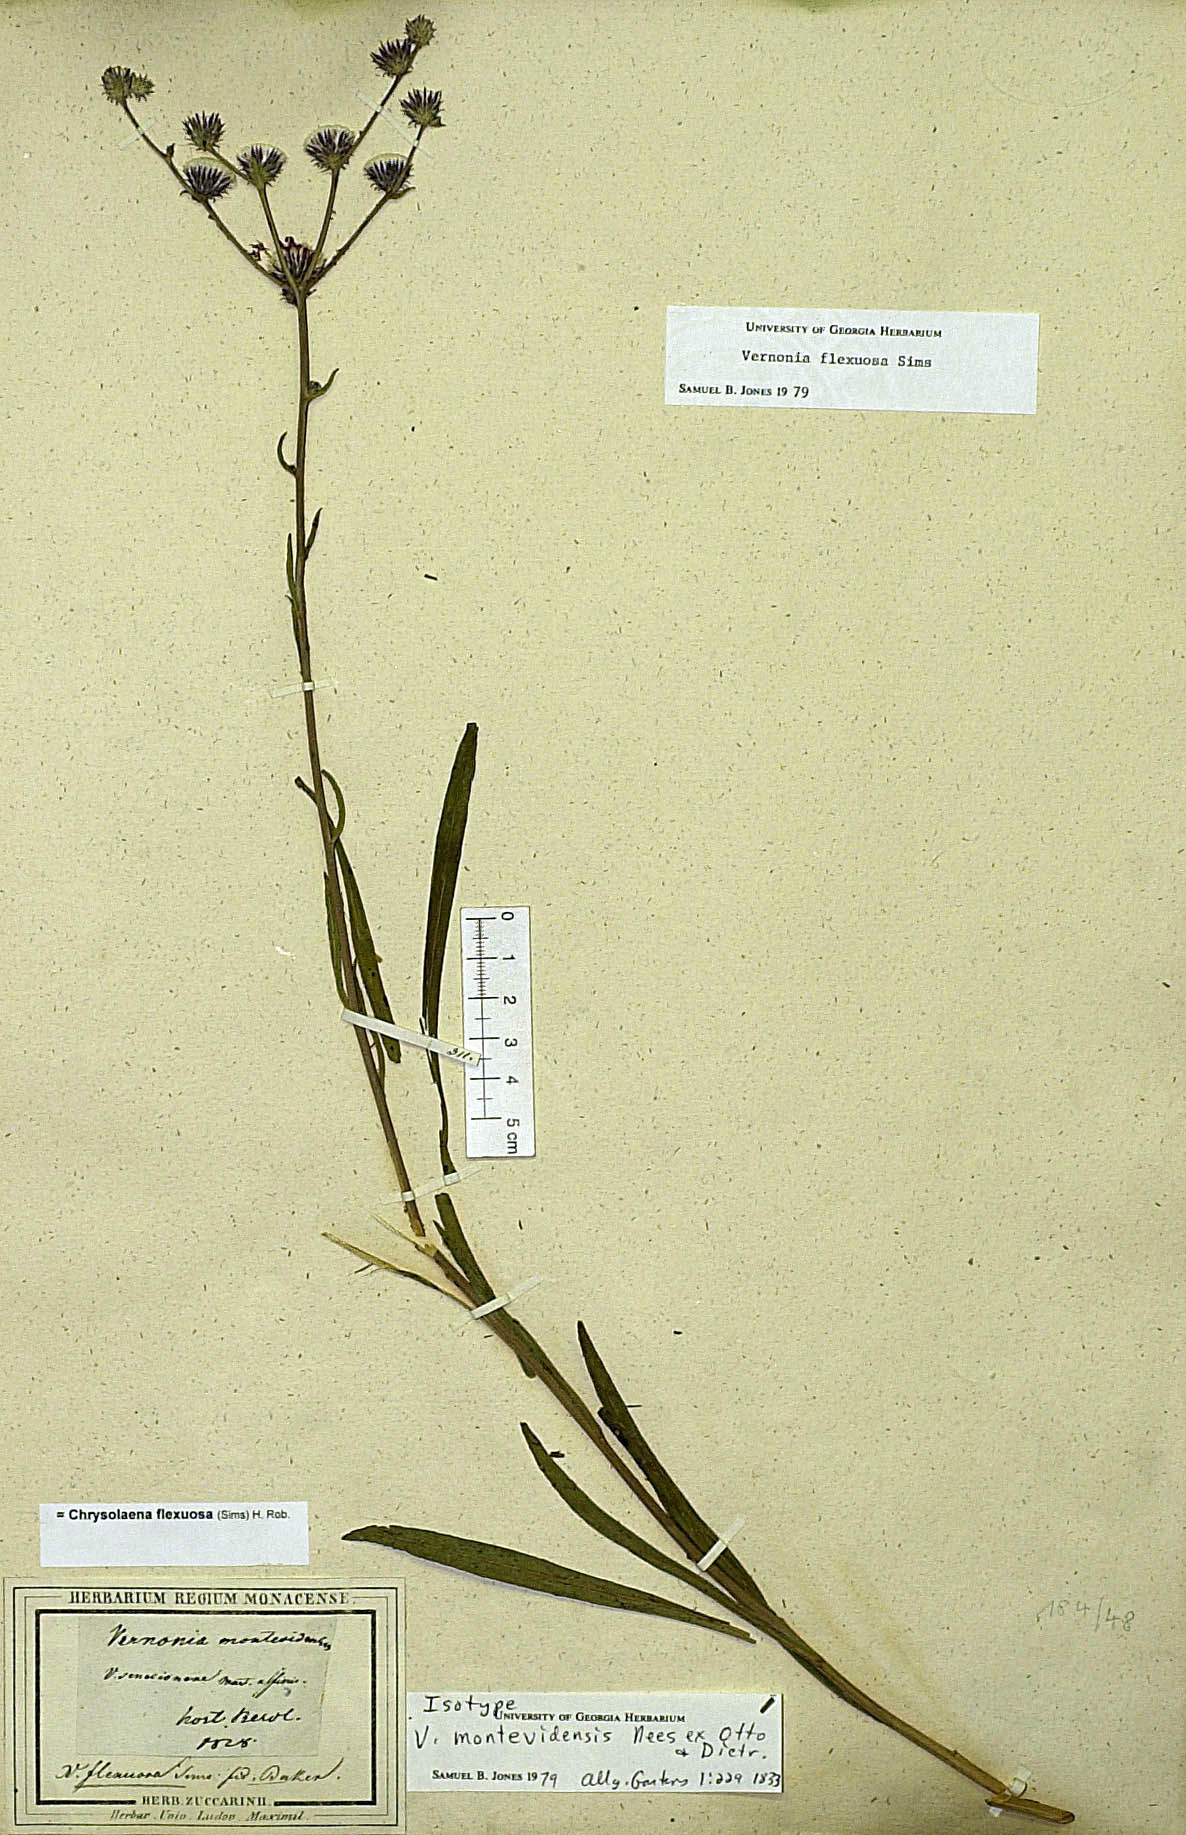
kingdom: Plantae
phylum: Tracheophyta
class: Magnoliopsida
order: Asterales
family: Asteraceae
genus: Chrysolaena
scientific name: Chrysolaena flexuosa
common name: Zig-zag vernonia
